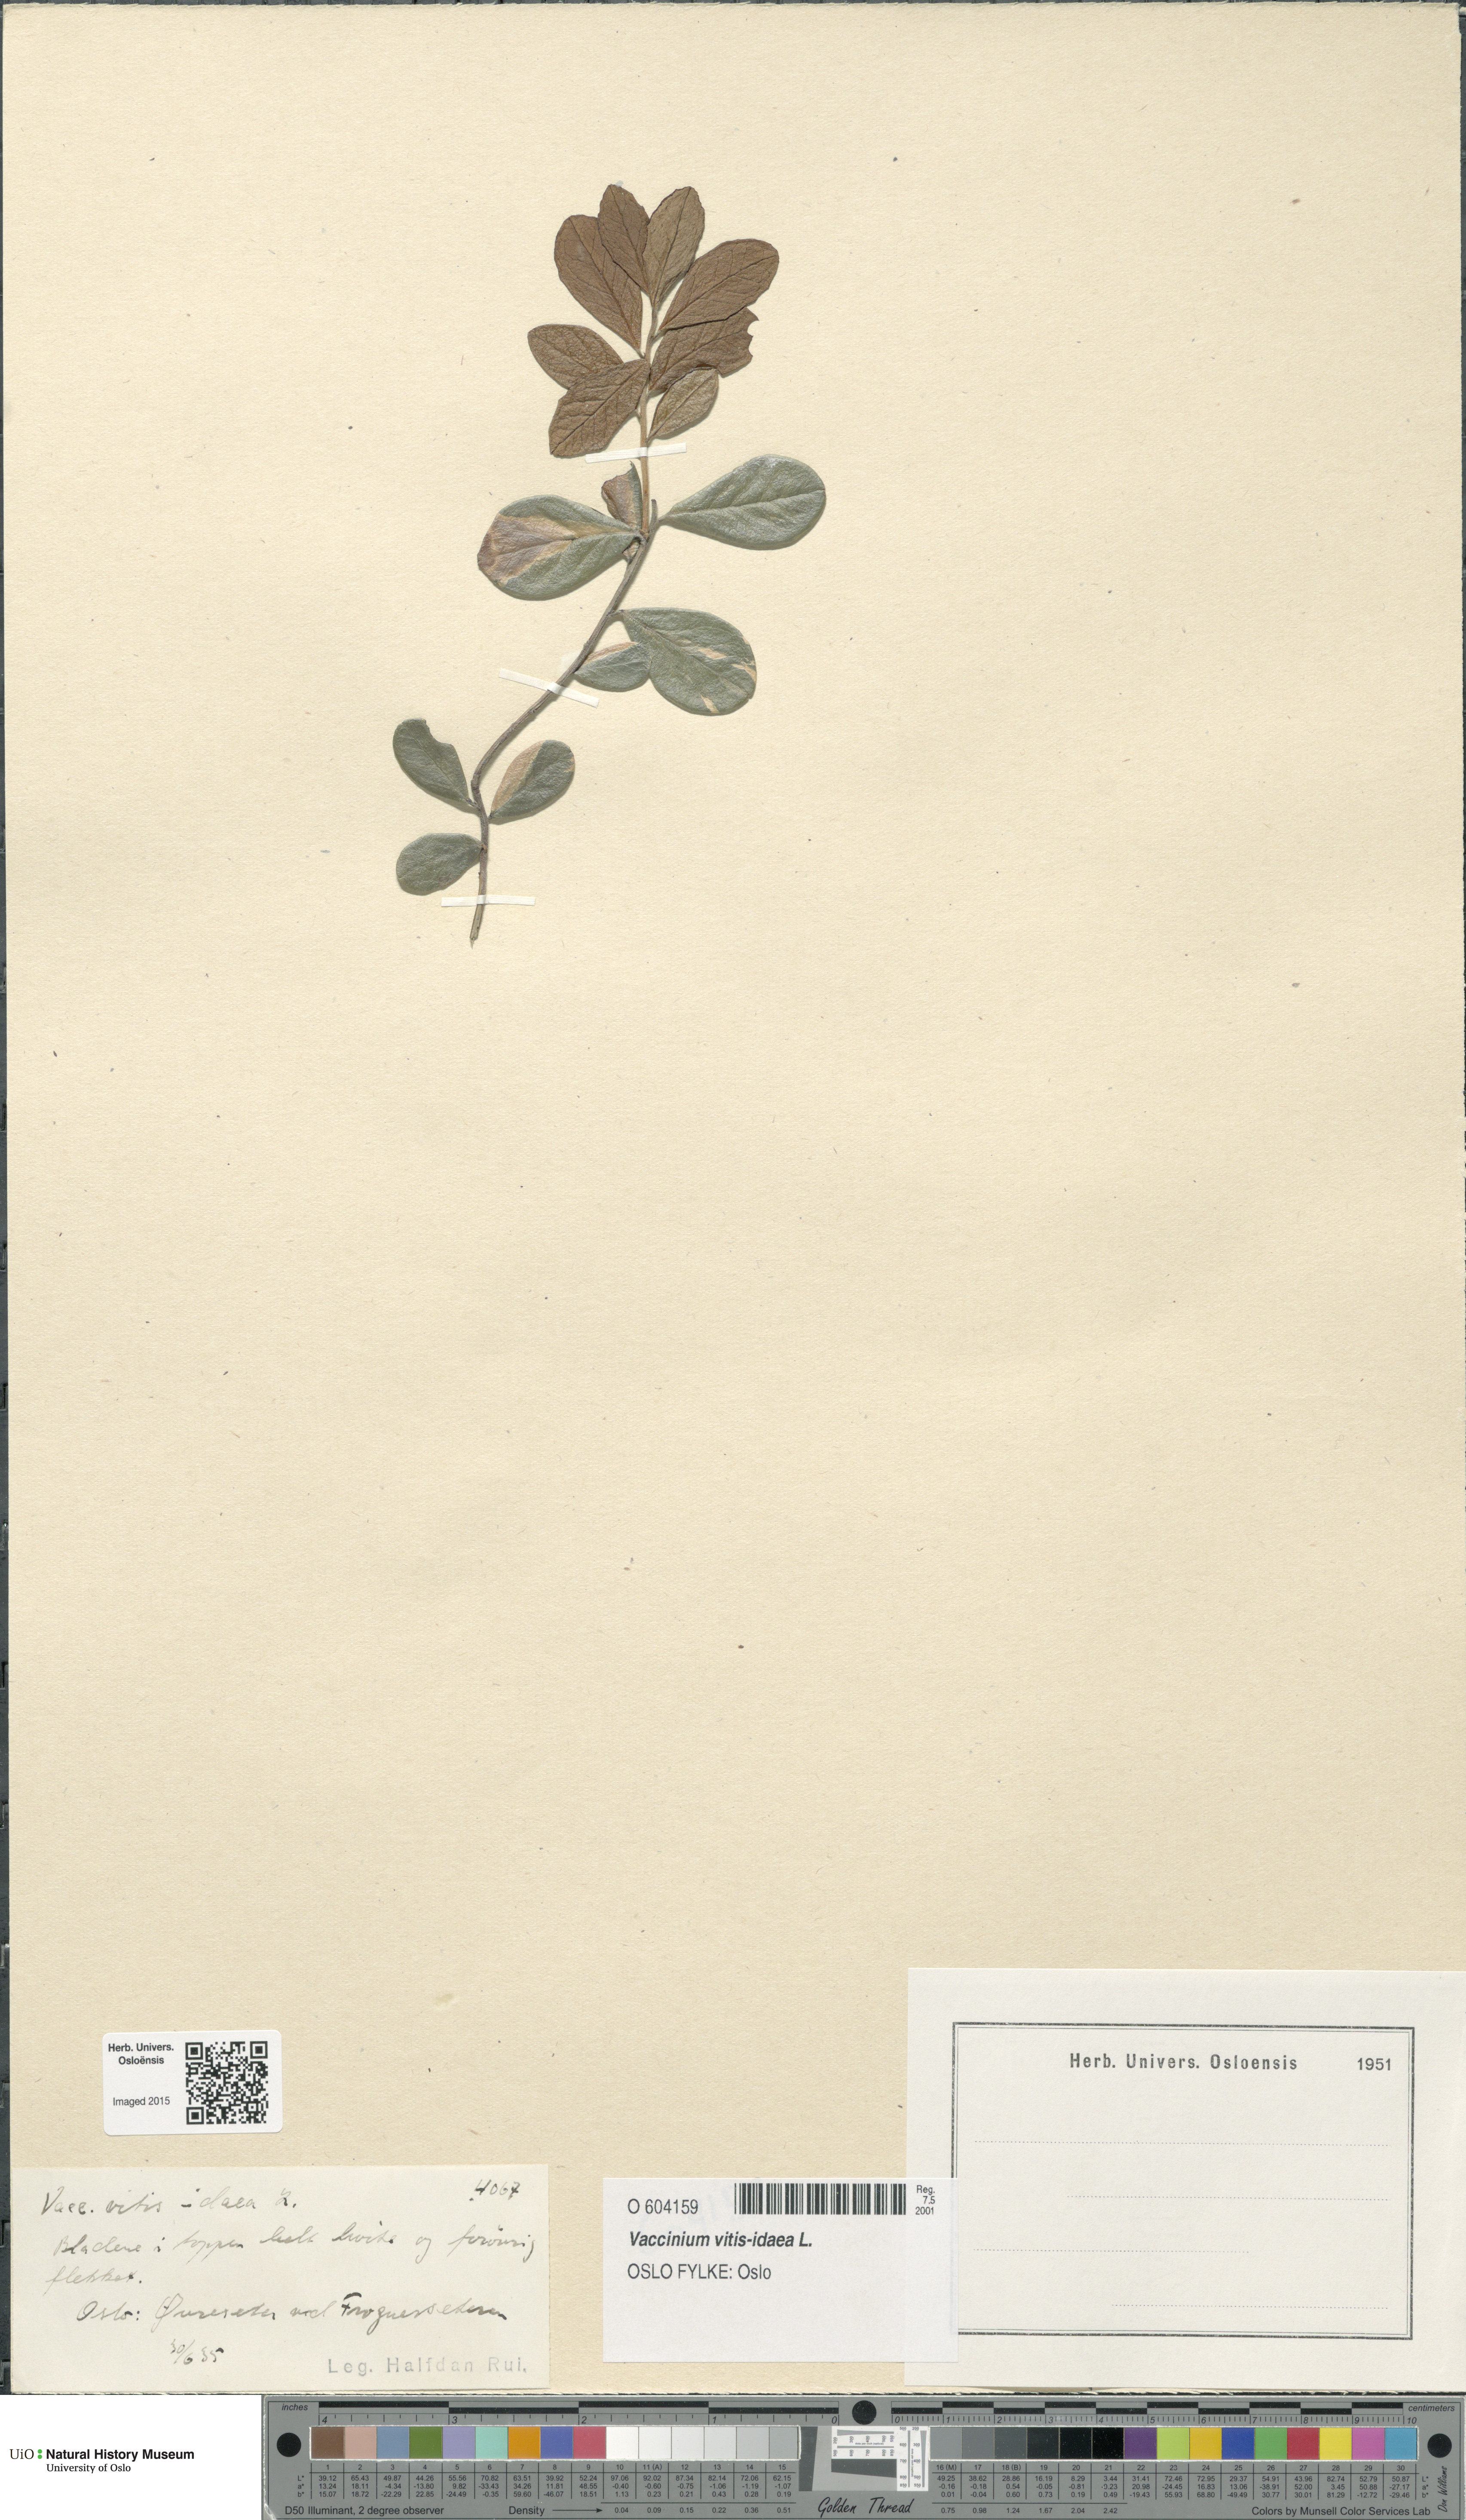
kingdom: Plantae
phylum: Tracheophyta
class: Magnoliopsida
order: Ericales
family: Ericaceae
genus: Vaccinium
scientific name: Vaccinium vitis-idaea
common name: Cowberry
